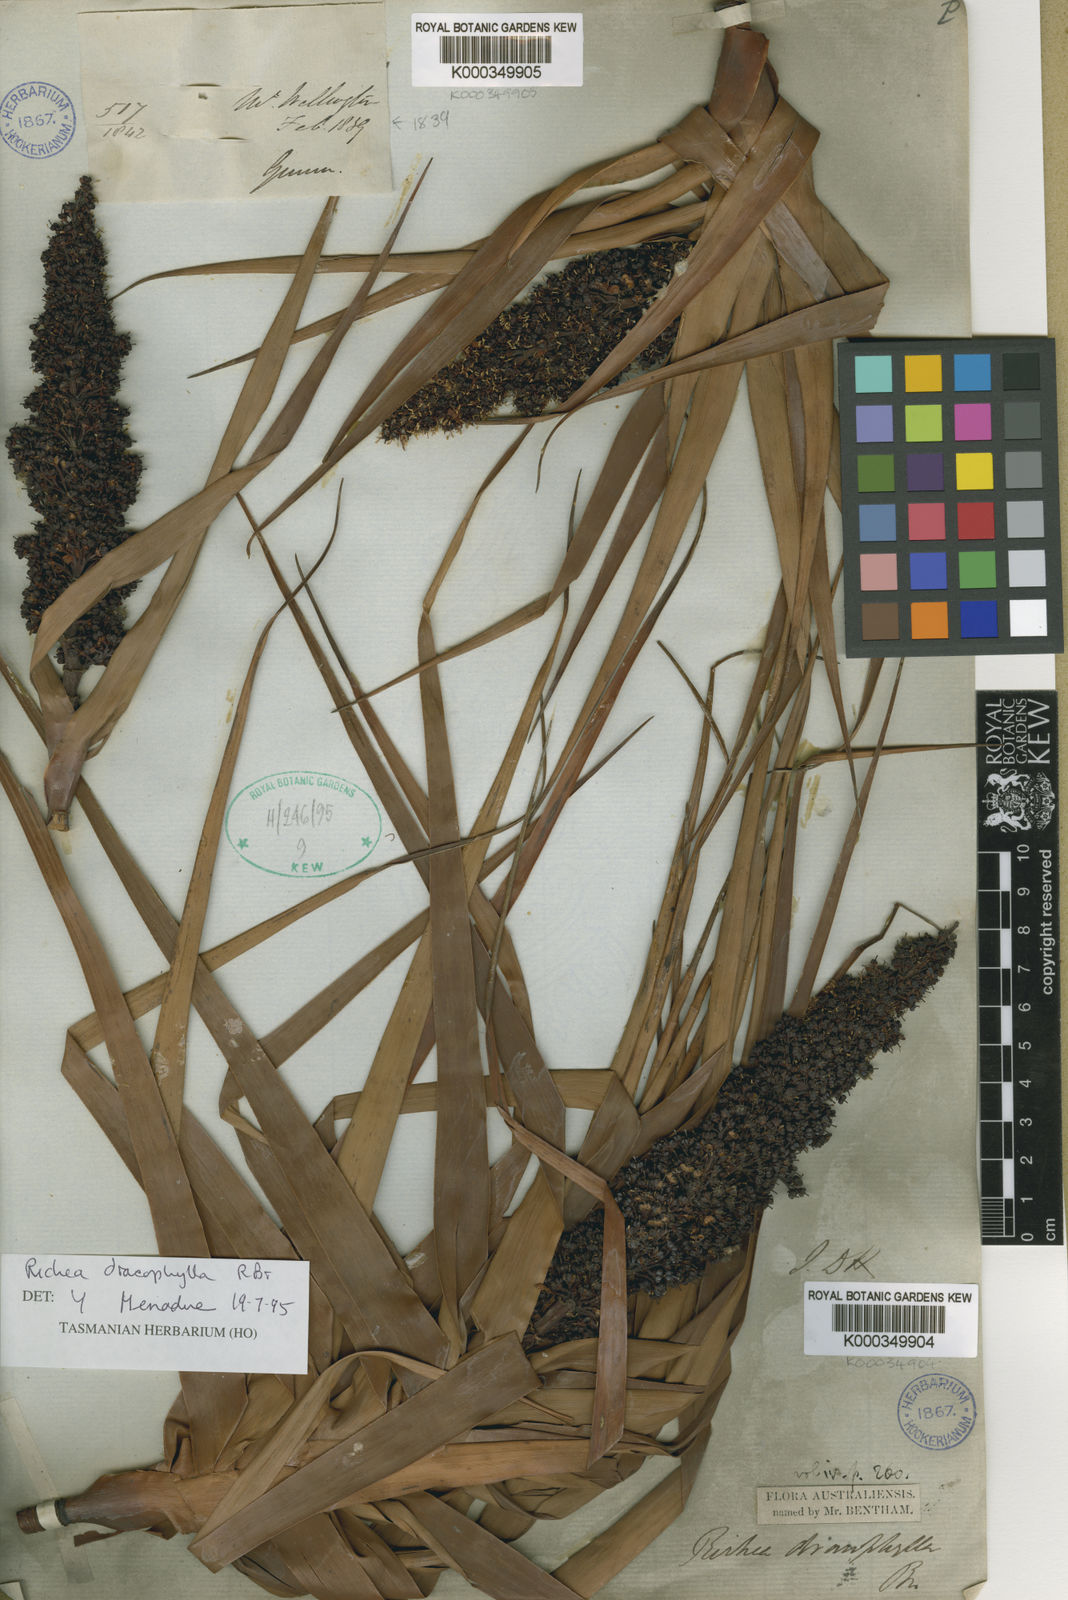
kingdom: Plantae
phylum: Tracheophyta
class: Magnoliopsida
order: Ericales
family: Ericaceae
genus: Dracophyllum
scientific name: Dracophyllum desgrazii
